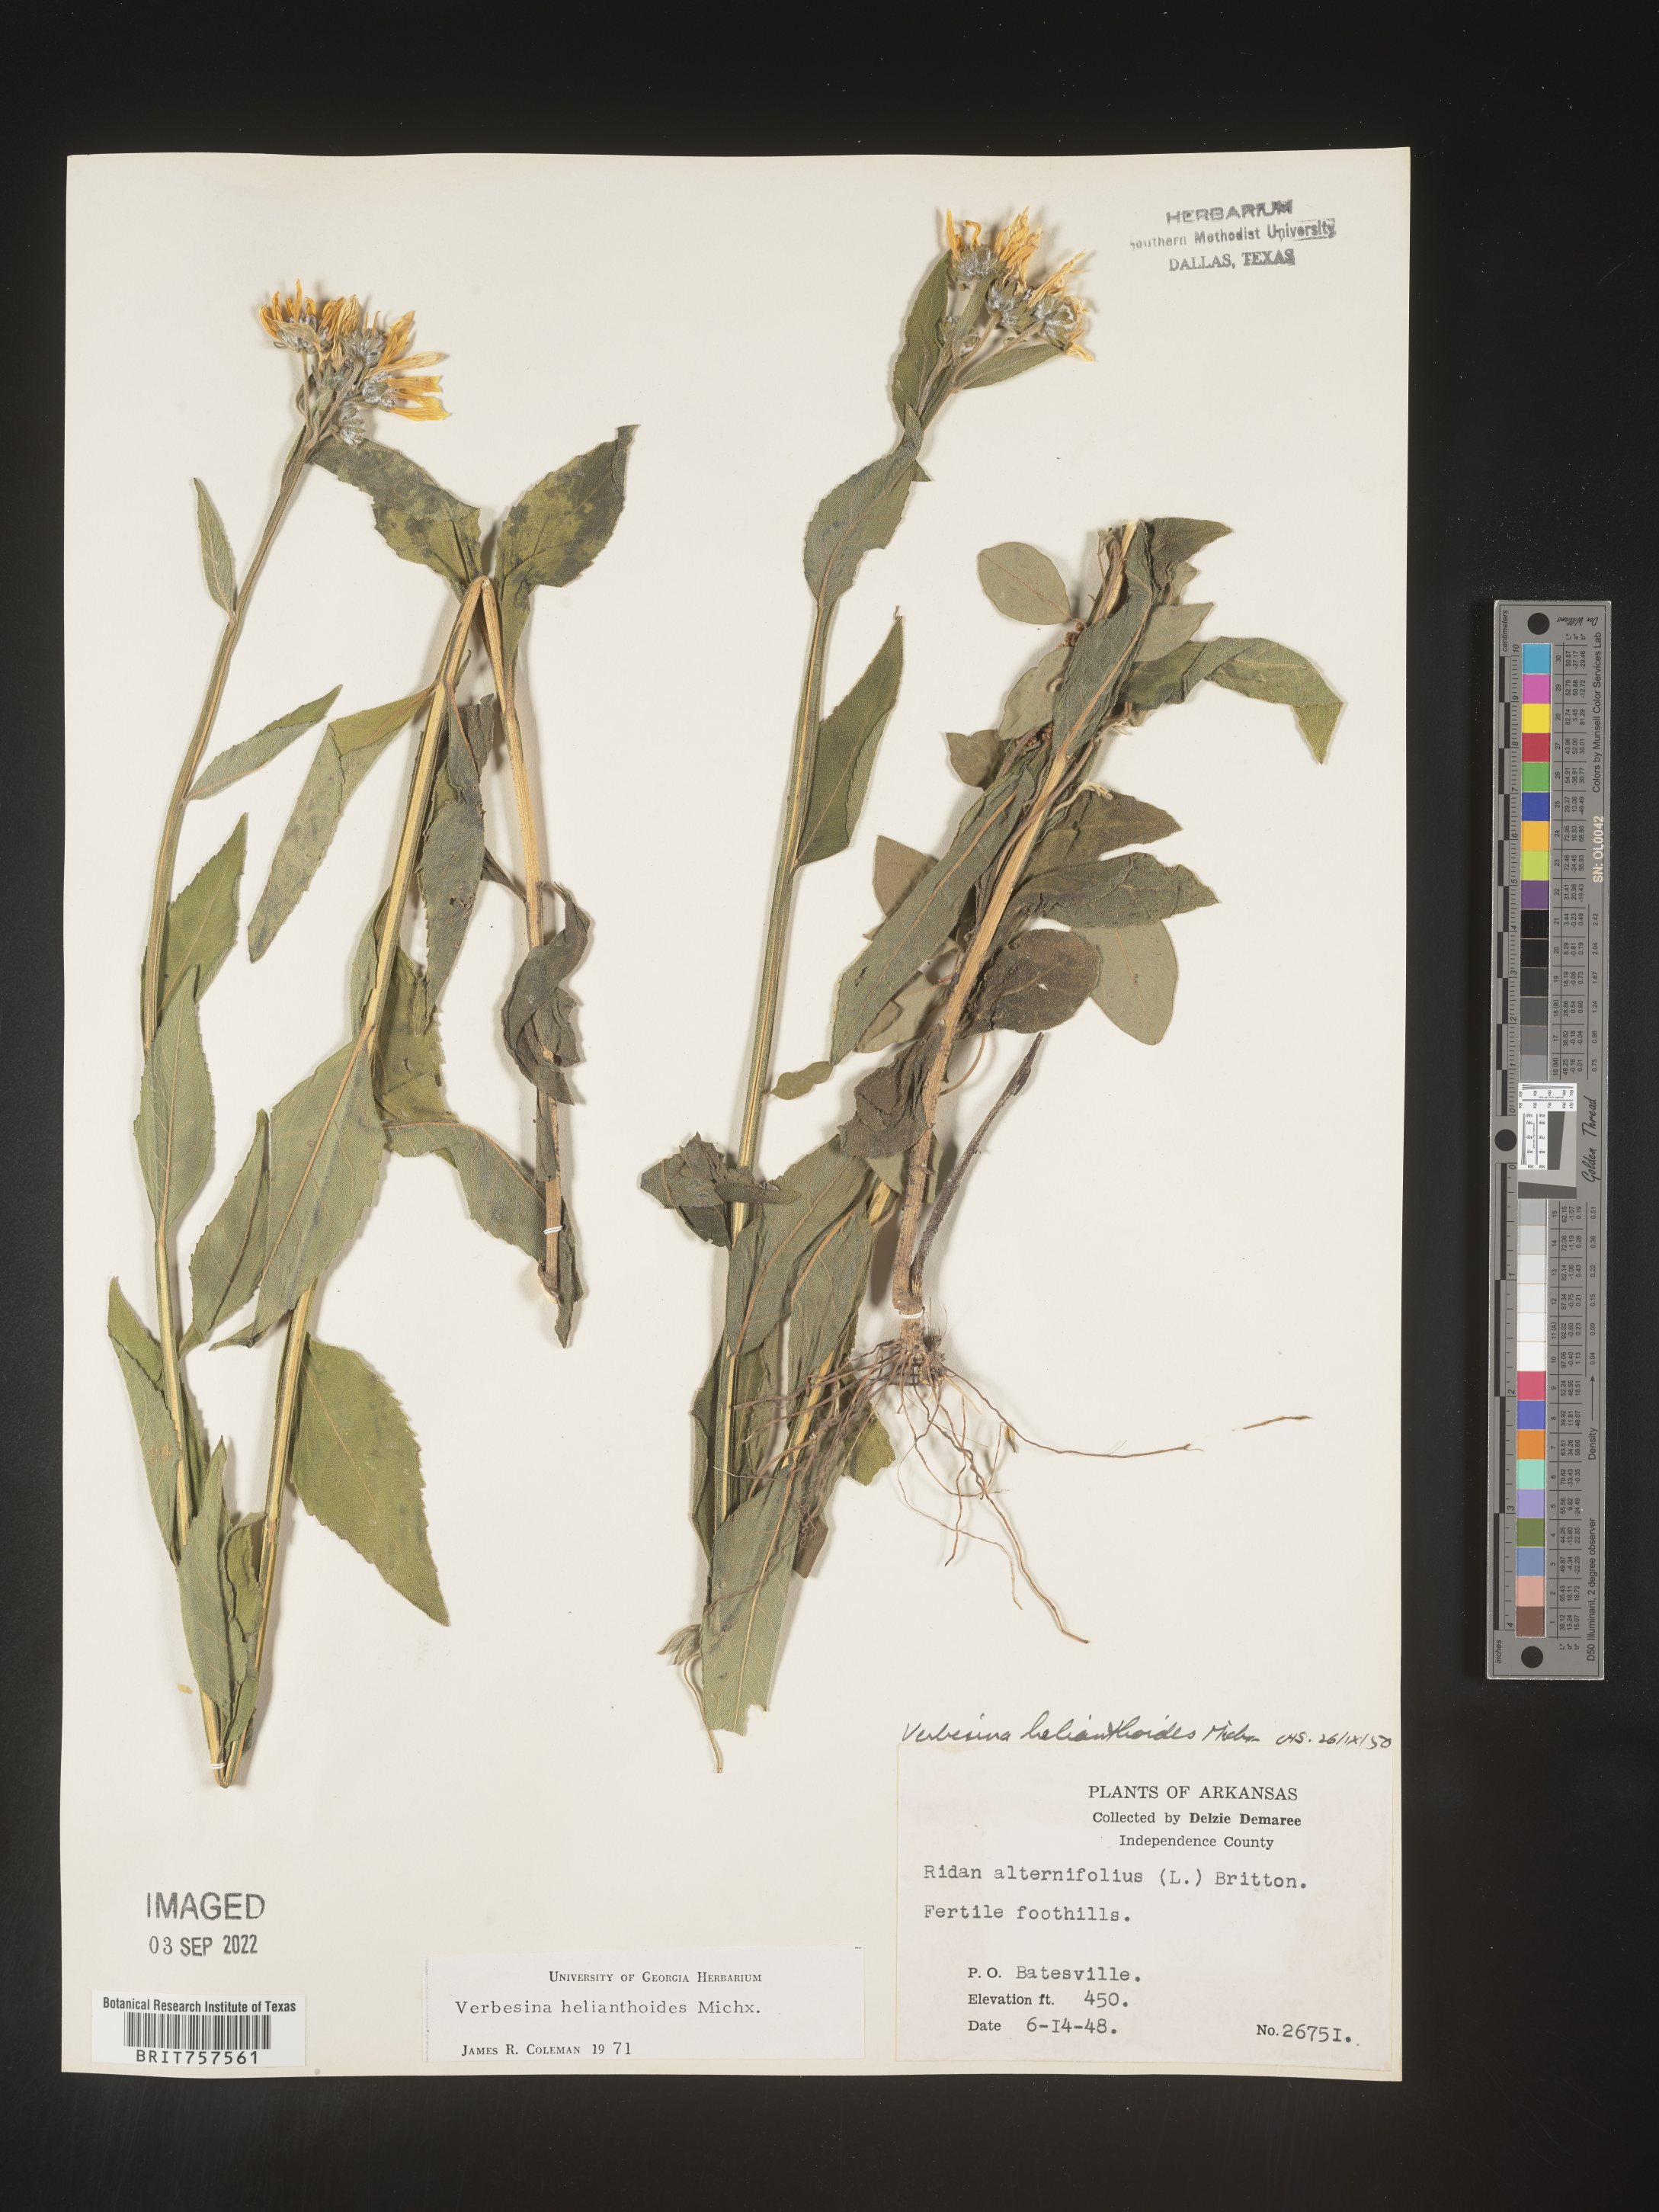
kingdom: Plantae
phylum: Tracheophyta
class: Magnoliopsida
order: Asterales
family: Asteraceae
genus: Verbesina
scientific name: Verbesina helianthoides
